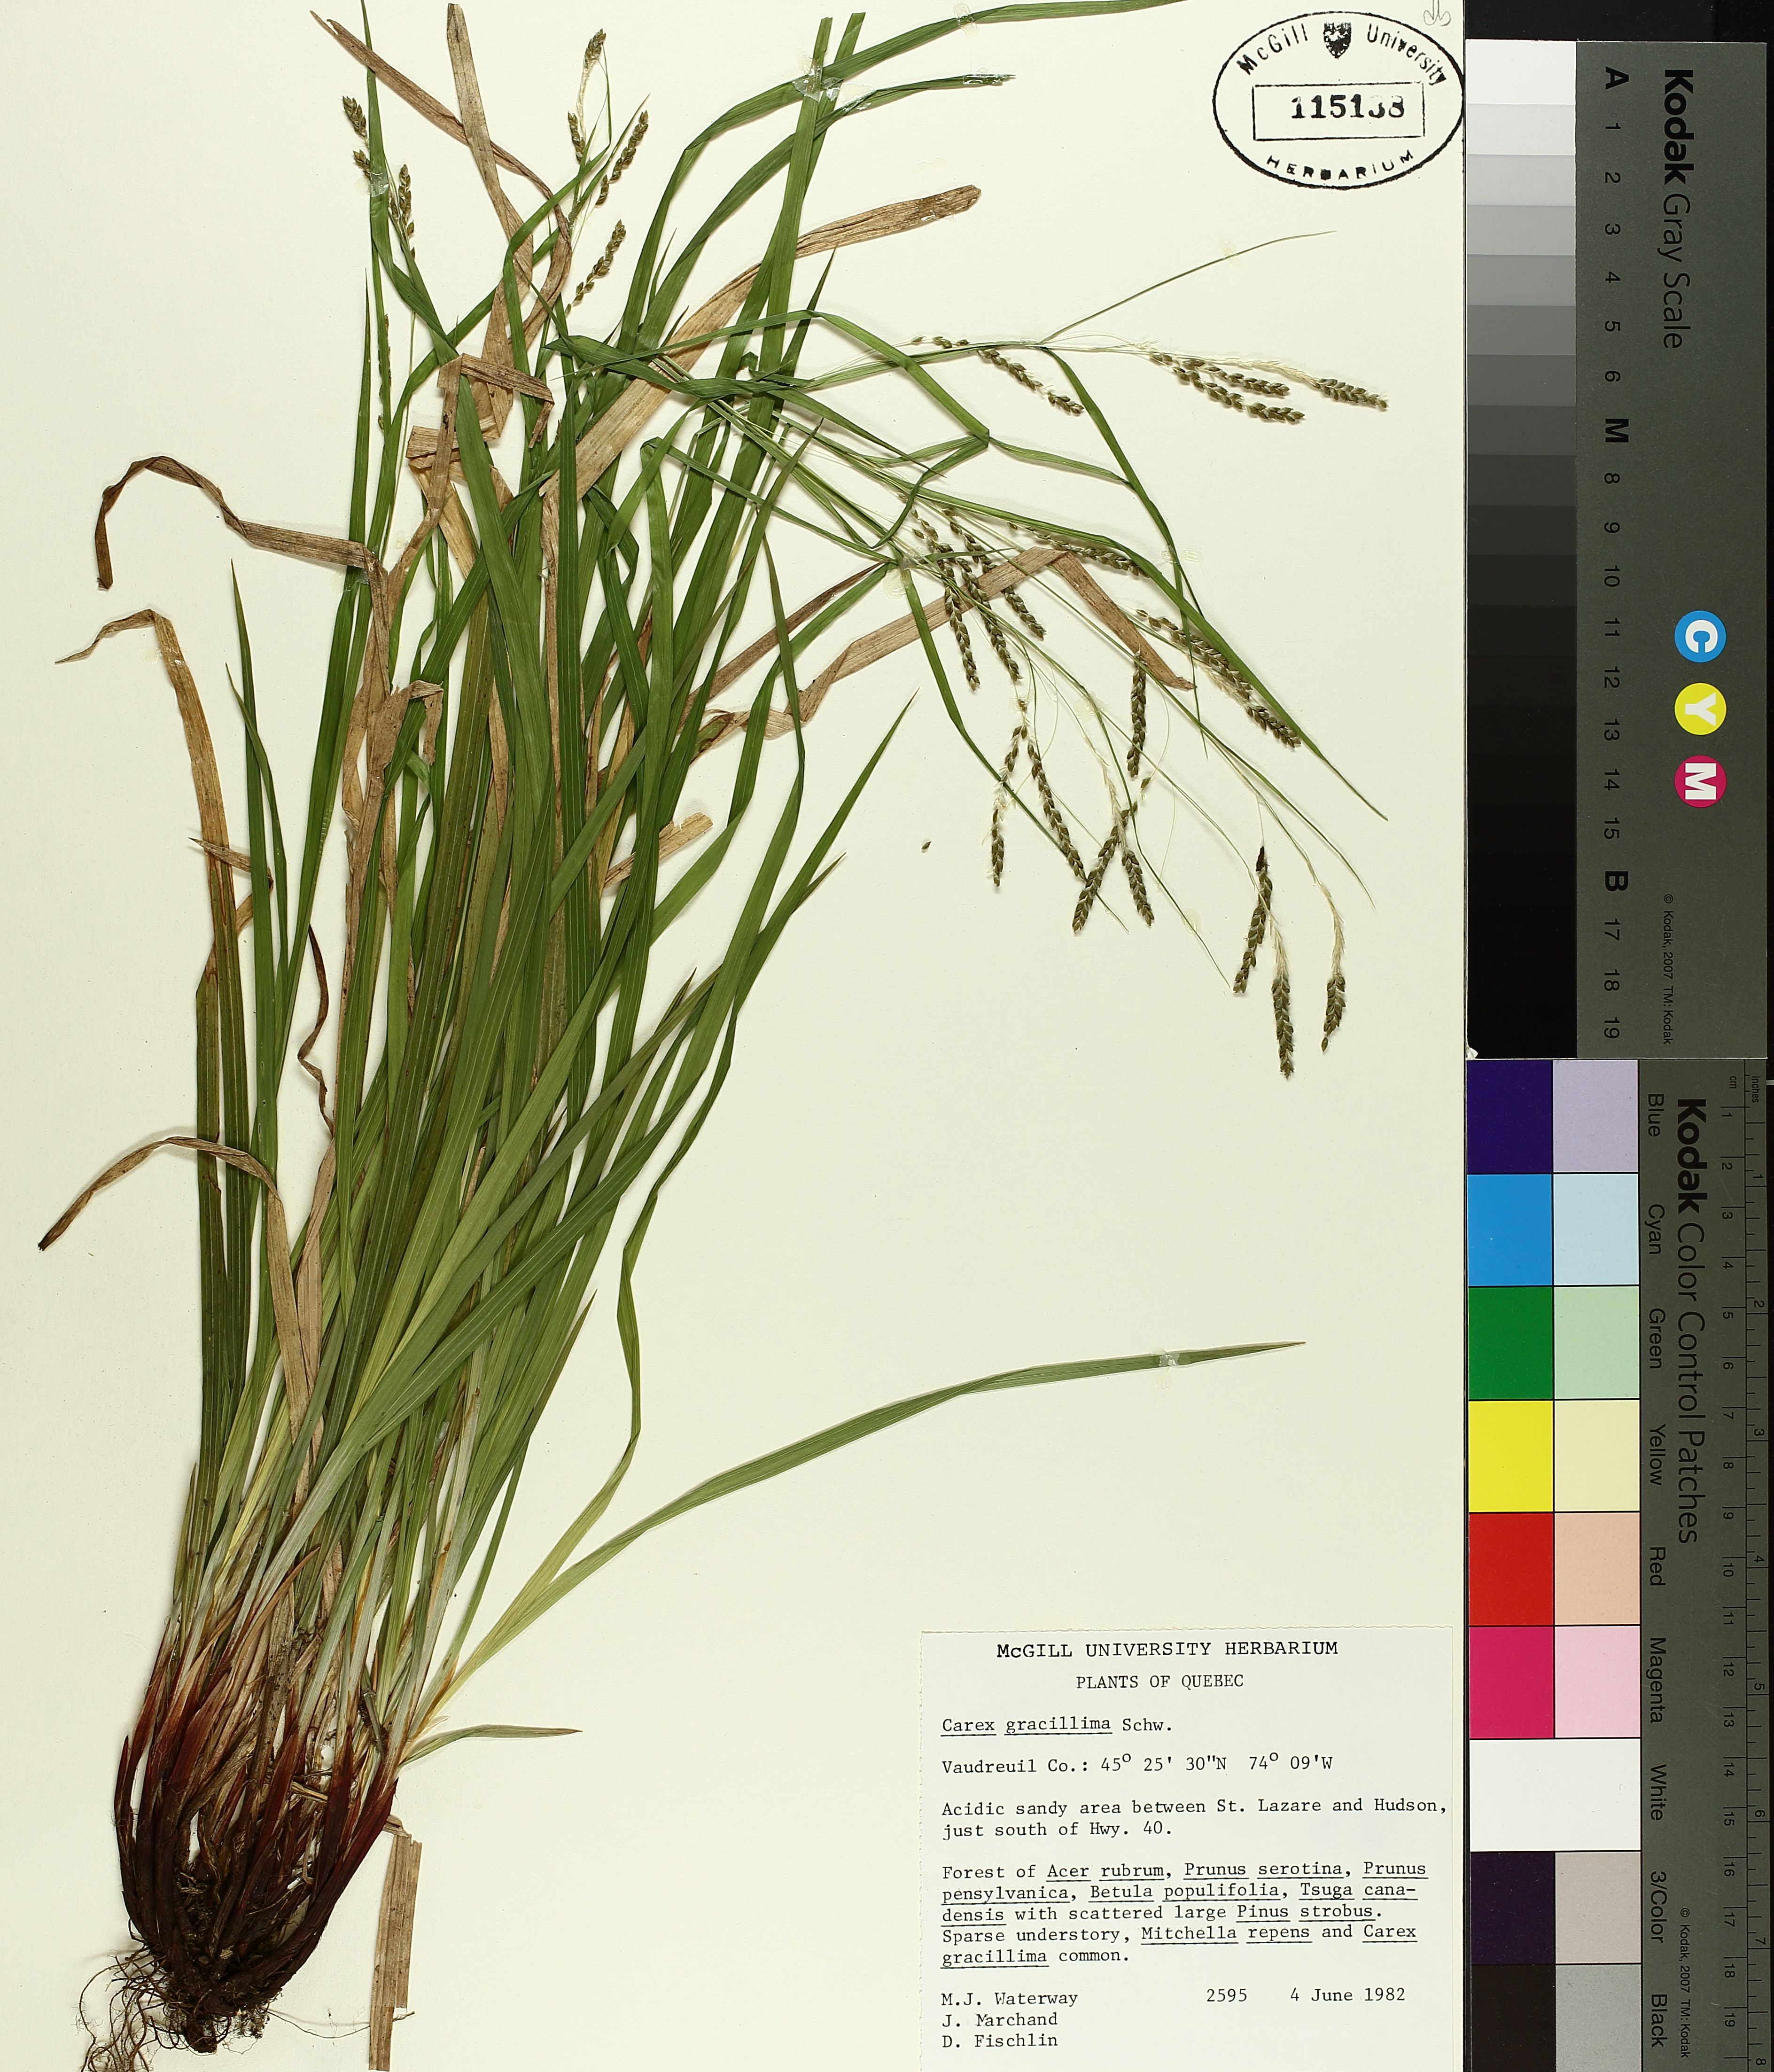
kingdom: Plantae
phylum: Tracheophyta
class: Liliopsida
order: Poales
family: Cyperaceae
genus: Carex
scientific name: Carex gracillima
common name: Graceful sedge
